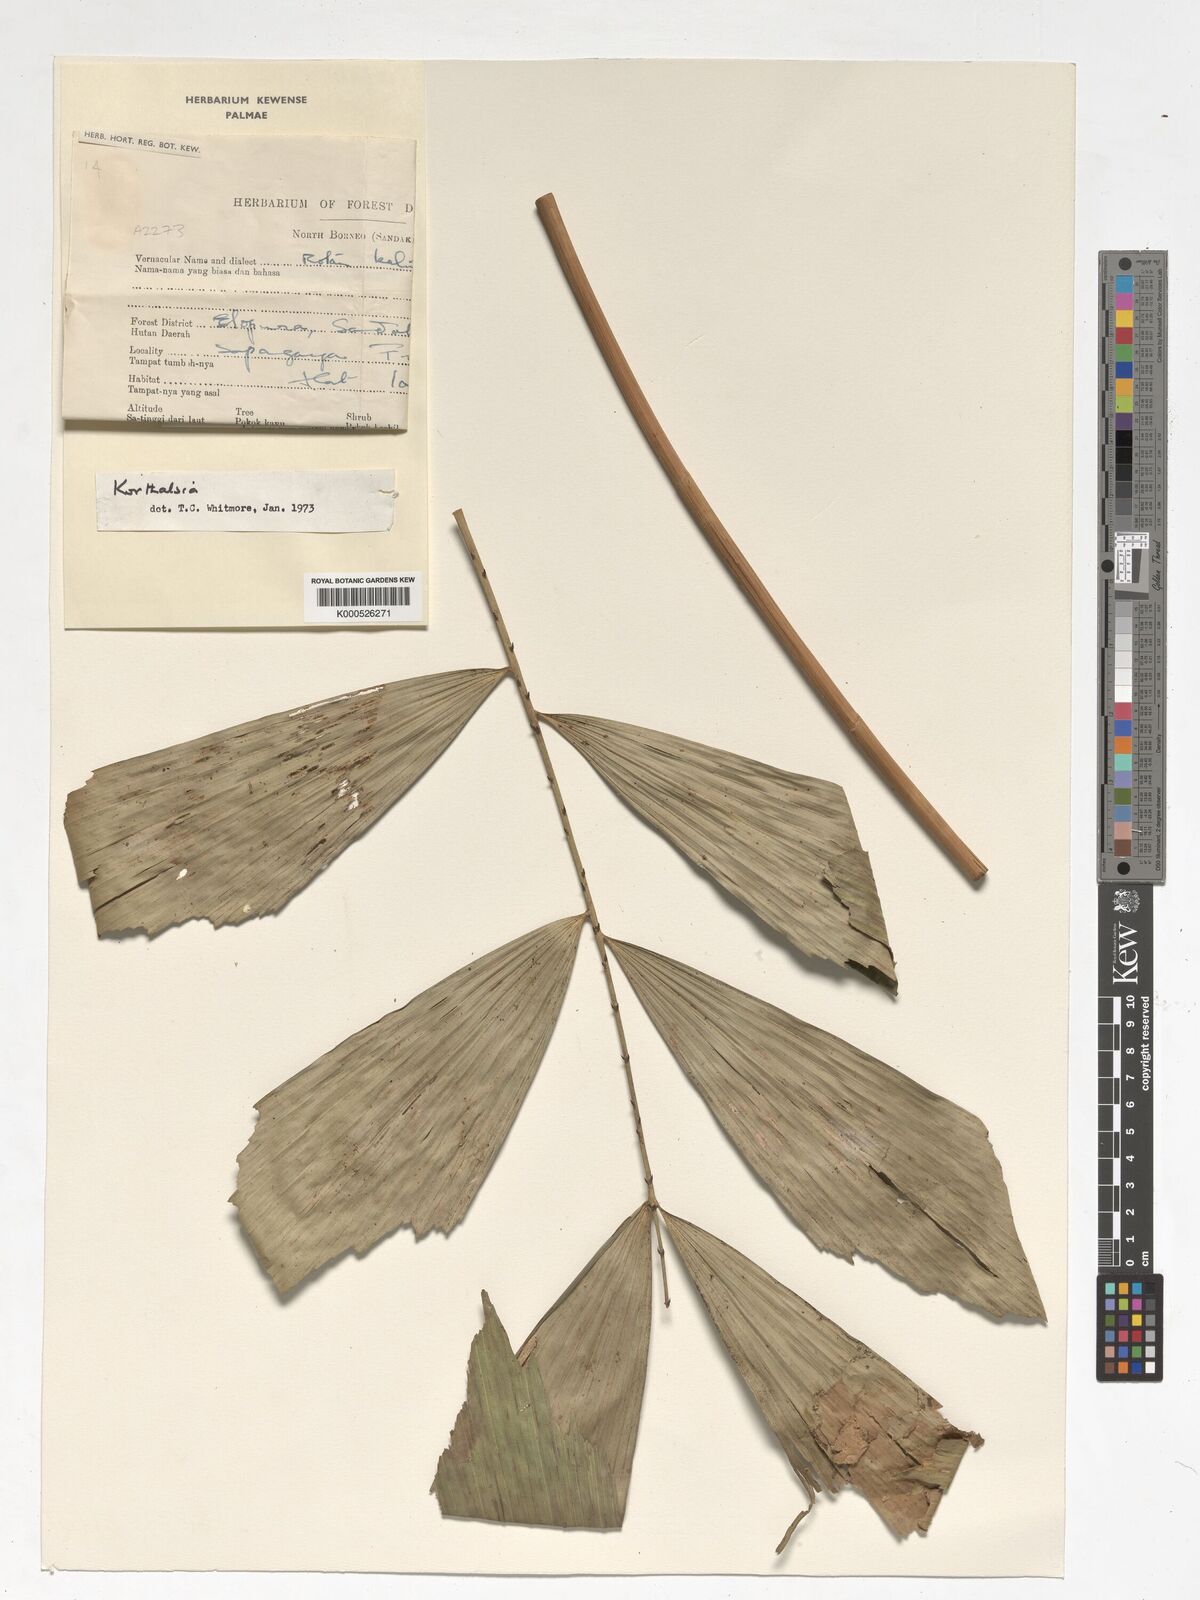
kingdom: Plantae
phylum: Tracheophyta
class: Liliopsida
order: Arecales
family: Arecaceae
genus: Korthalsia
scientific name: Korthalsia
